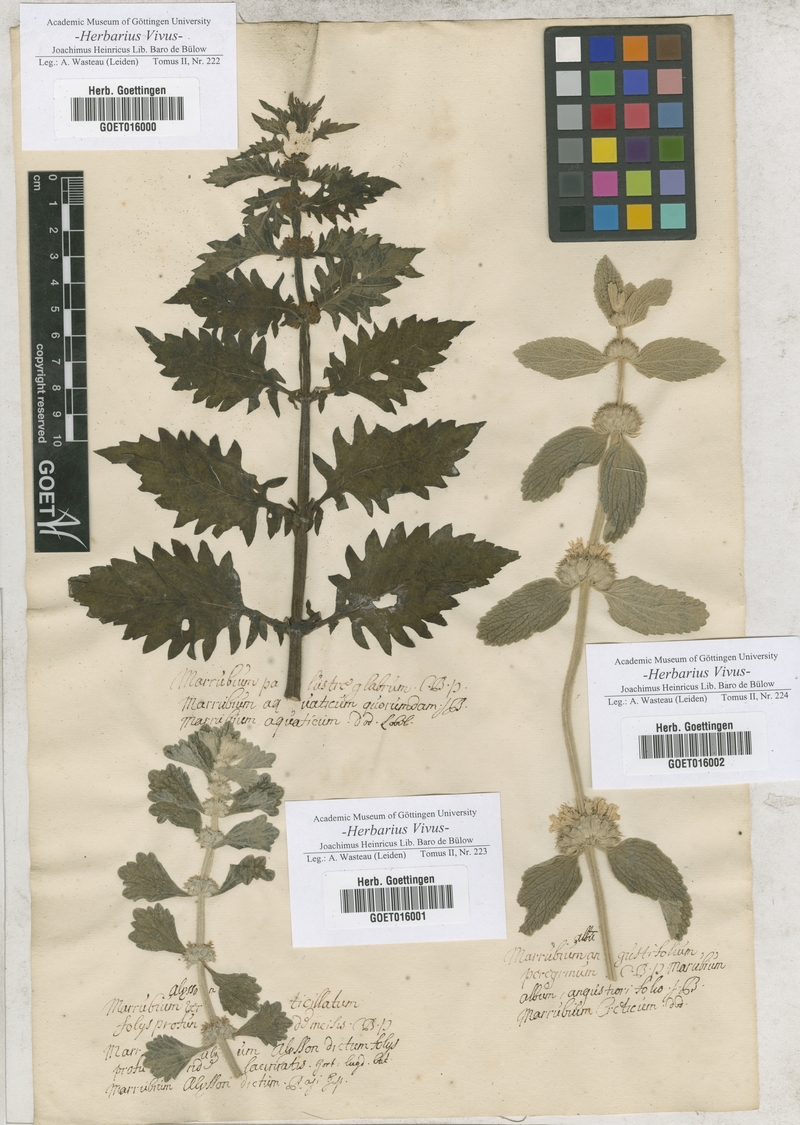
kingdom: Plantae
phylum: Tracheophyta
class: Magnoliopsida
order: Lamiales
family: Lamiaceae
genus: Lycopus
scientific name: Lycopus europaeus
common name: European bugleweed
